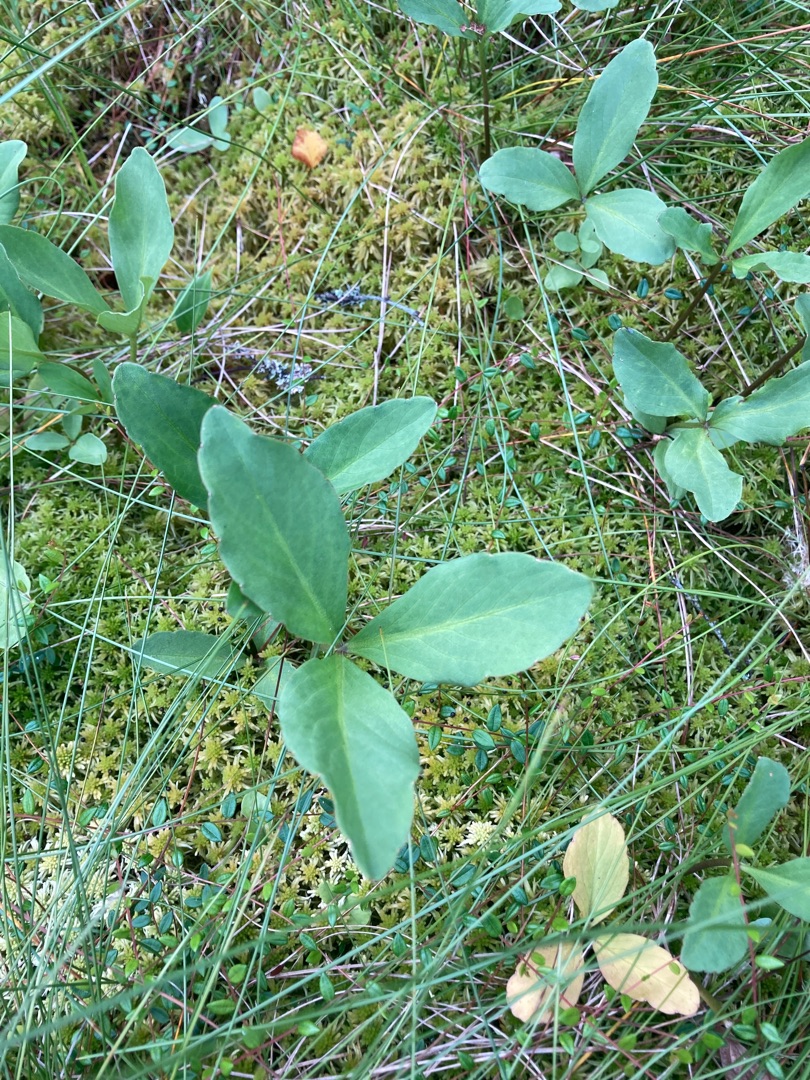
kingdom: Plantae
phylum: Tracheophyta
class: Magnoliopsida
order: Asterales
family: Menyanthaceae
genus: Menyanthes
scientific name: Menyanthes trifoliata
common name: Bukkeblad
